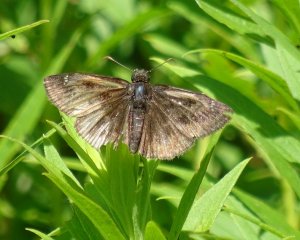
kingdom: Animalia
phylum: Arthropoda
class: Insecta
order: Lepidoptera
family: Hesperiidae
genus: Gesta
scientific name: Gesta
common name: Columbine Duskywing
